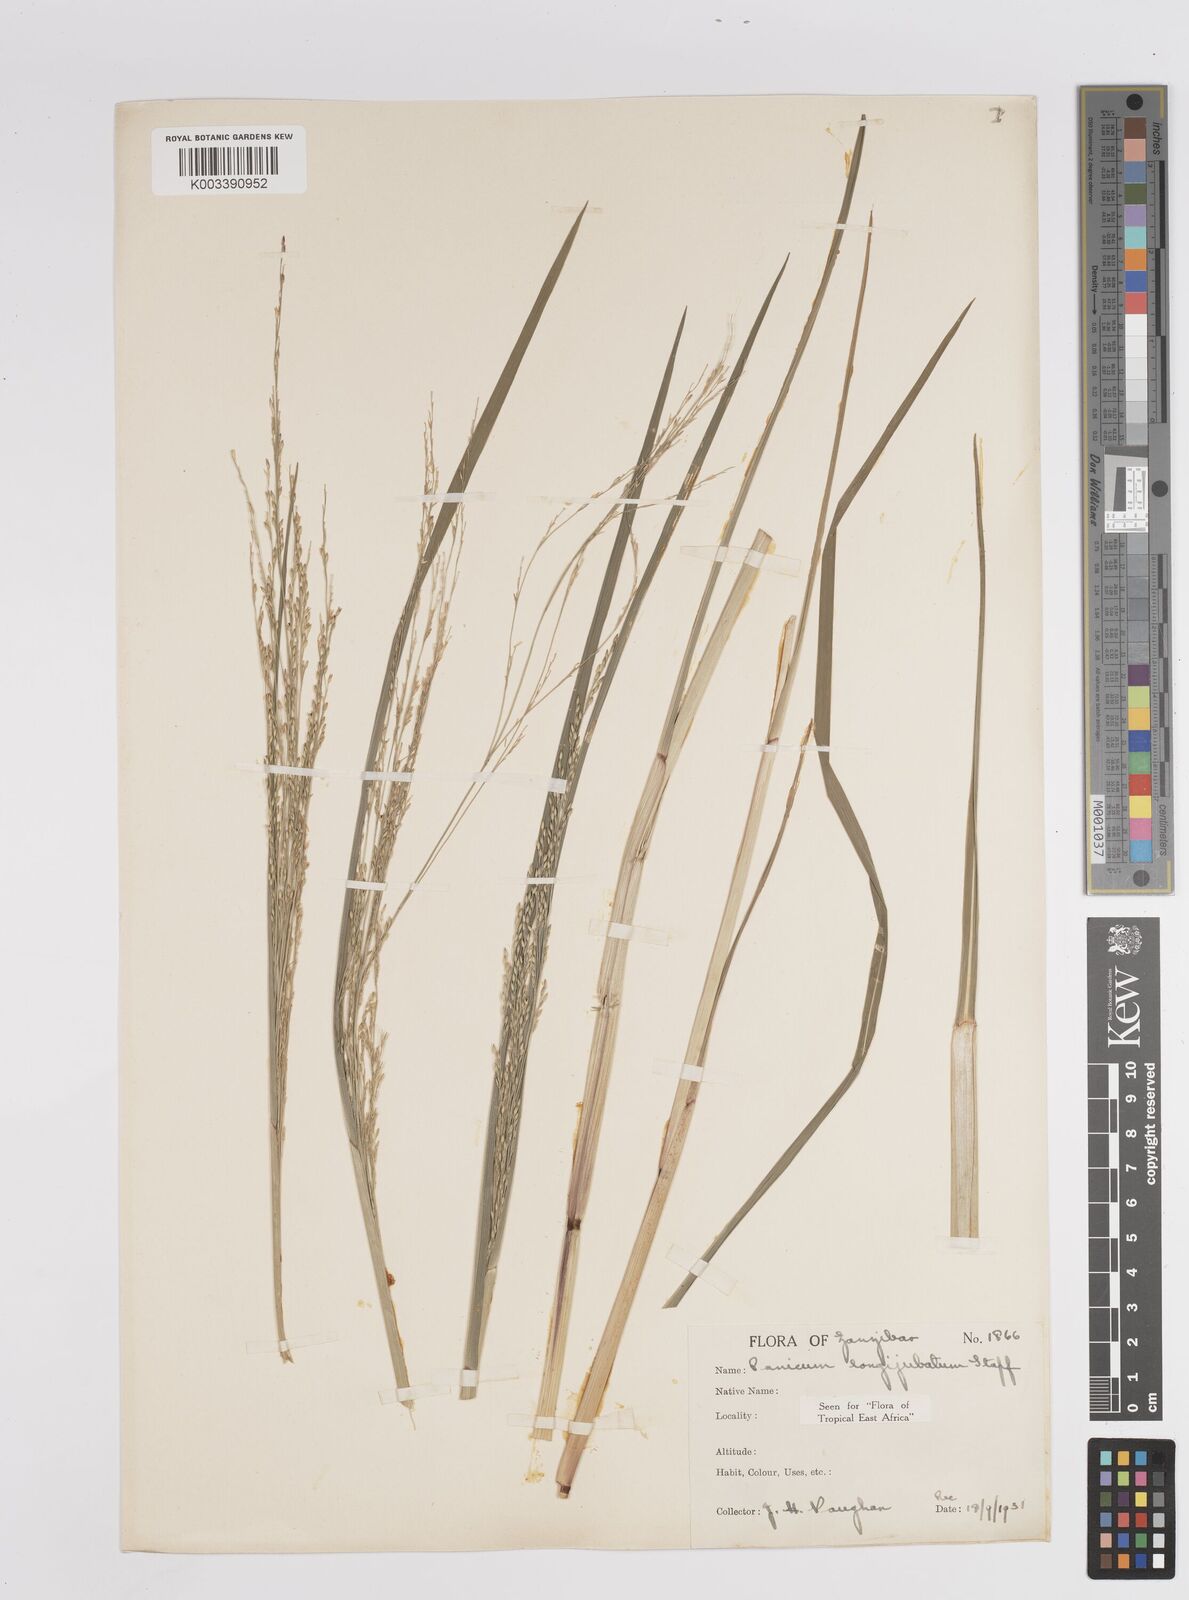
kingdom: Plantae
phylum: Tracheophyta
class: Liliopsida
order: Poales
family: Poaceae
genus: Panicum
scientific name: Panicum subalbidum
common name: Elbow buffalo grass
